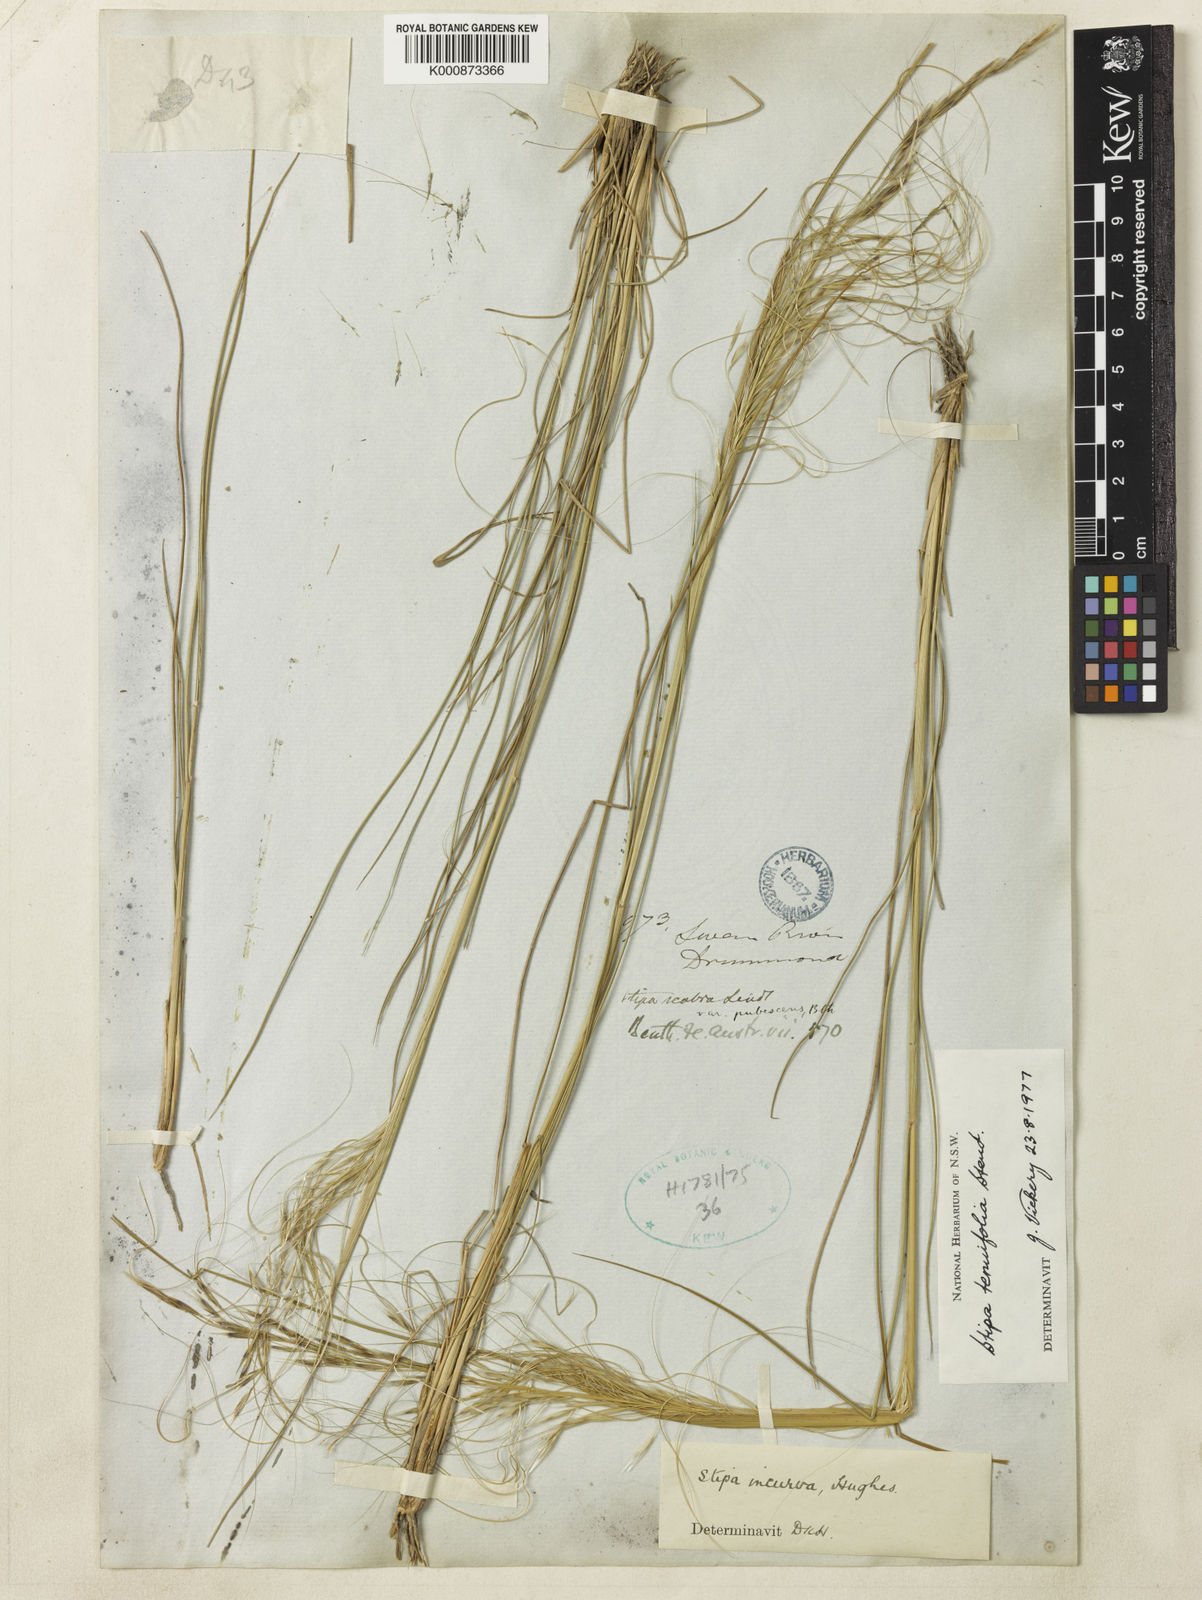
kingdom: Plantae
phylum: Tracheophyta
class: Liliopsida
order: Poales
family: Poaceae
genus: Austrostipa
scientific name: Austrostipa scabra
